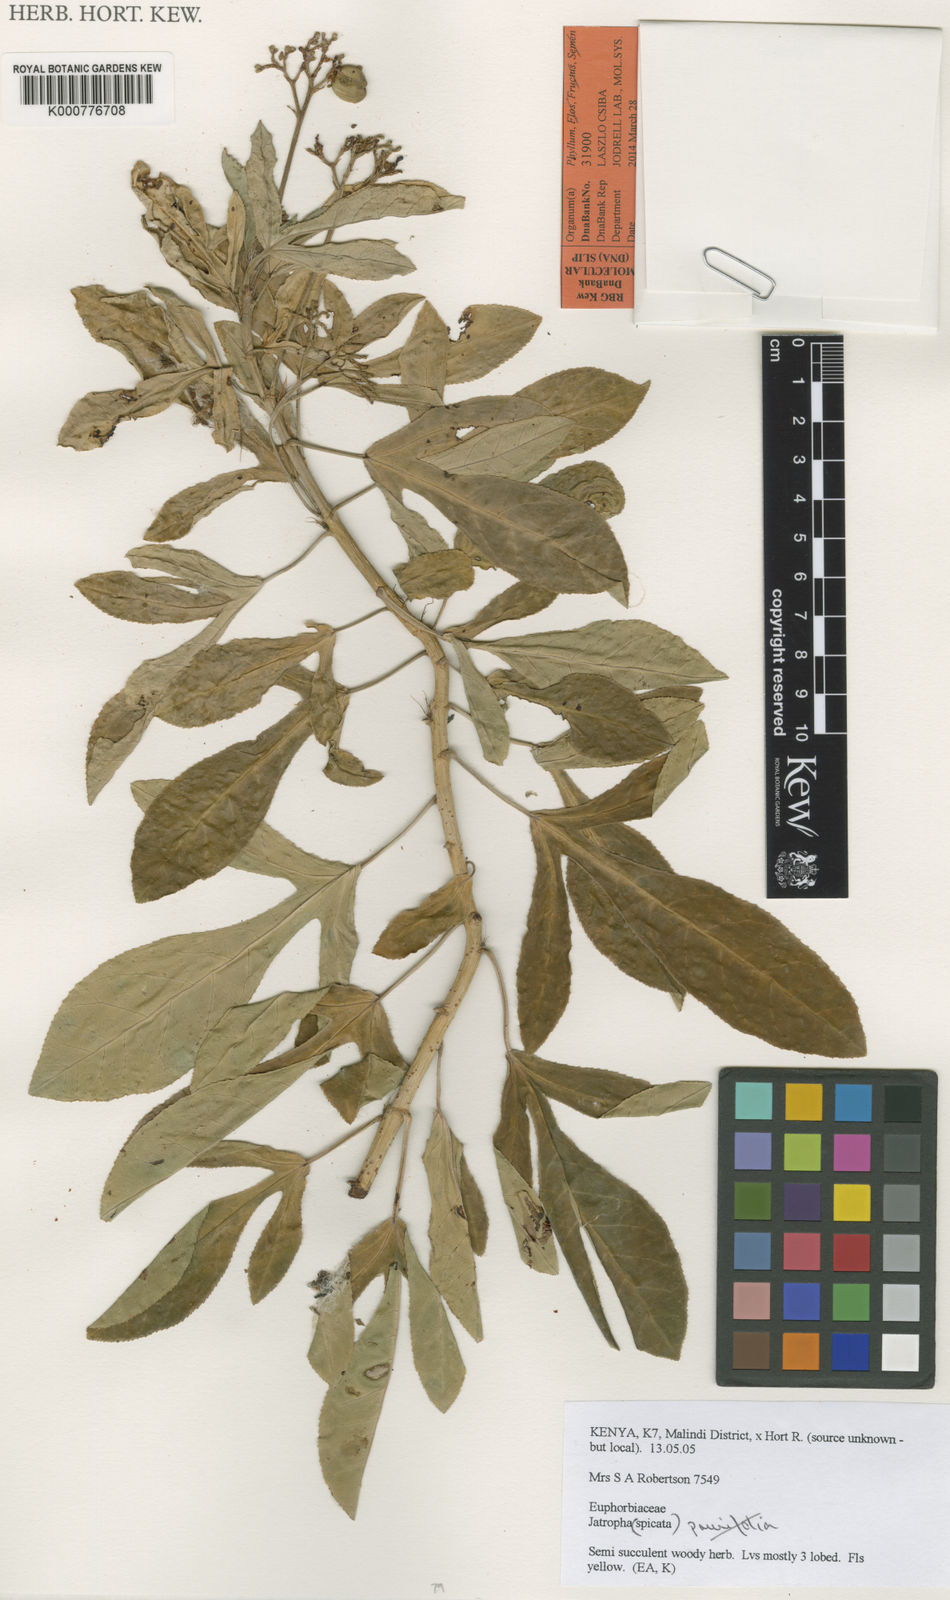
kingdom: Plantae
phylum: Tracheophyta
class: Magnoliopsida
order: Malpighiales
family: Euphorbiaceae
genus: Jatropha
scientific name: Jatropha spicata
